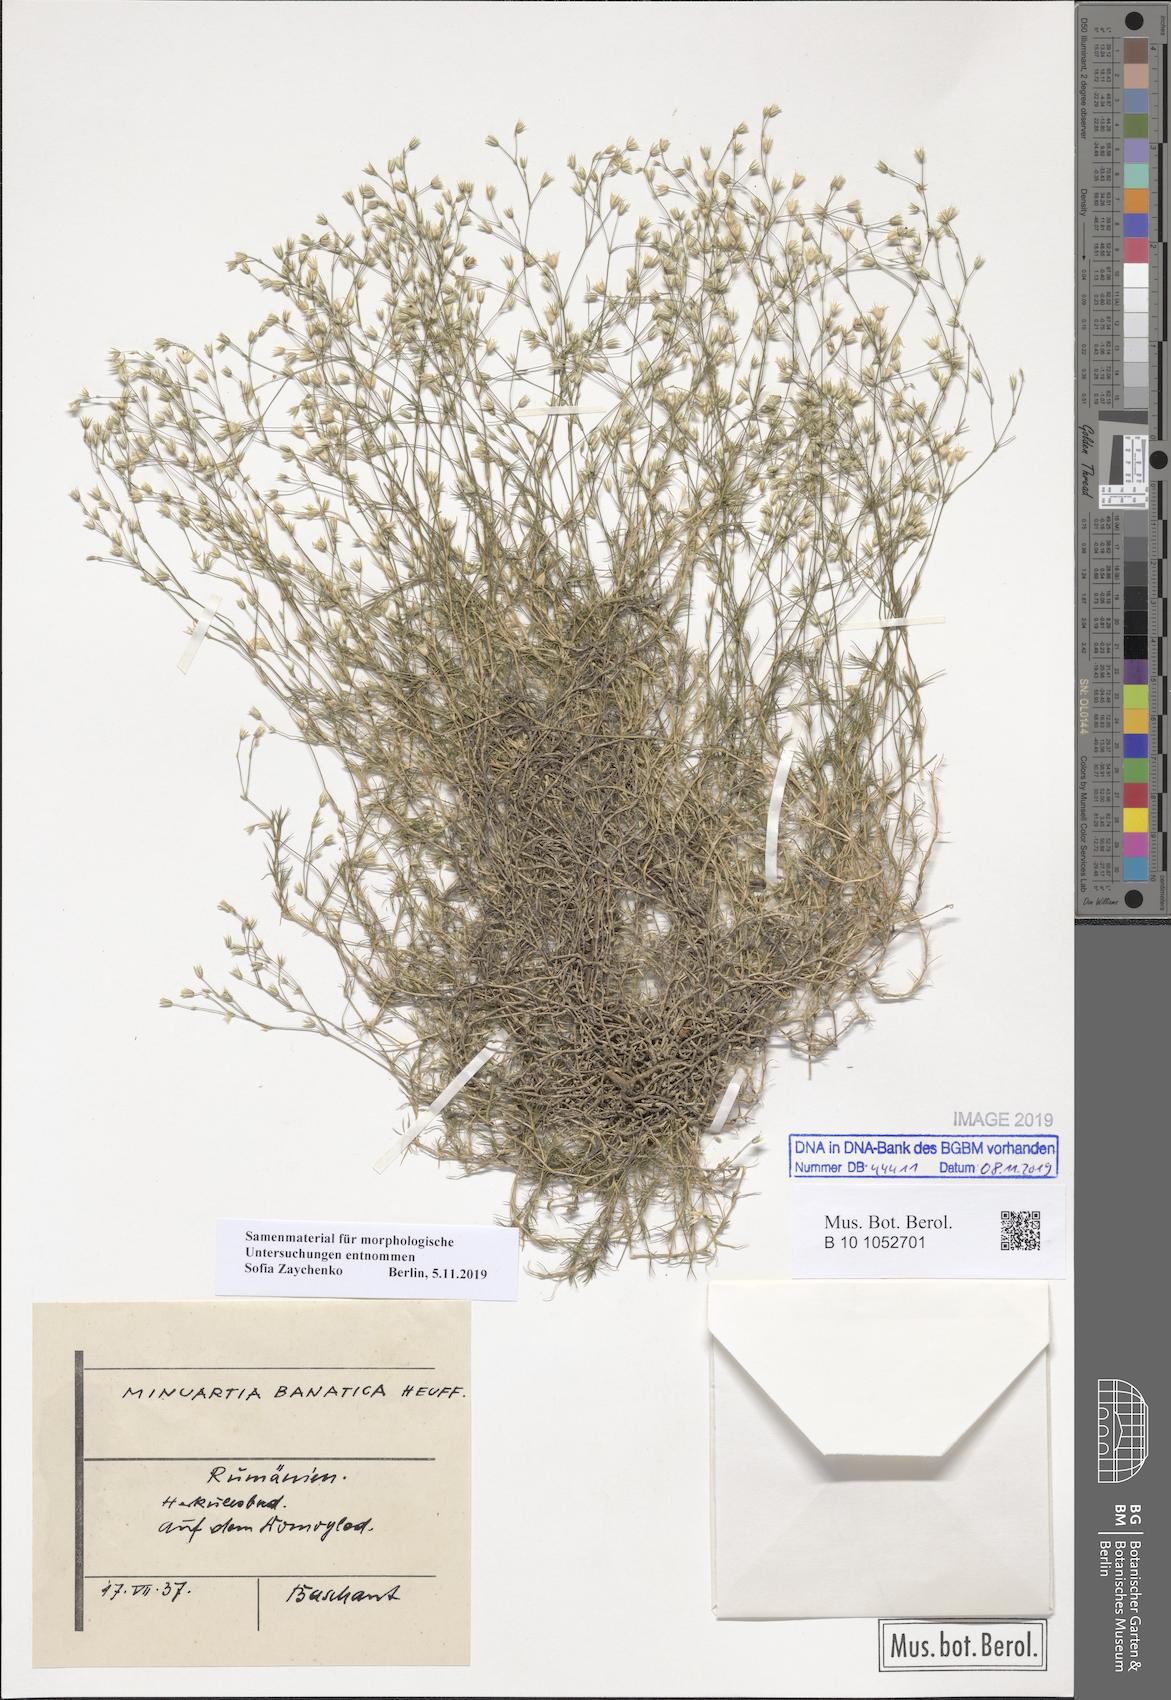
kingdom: Plantae
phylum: Tracheophyta
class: Magnoliopsida
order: Caryophyllales
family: Caryophyllaceae
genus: Minuartia
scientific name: Minuartia setacea
